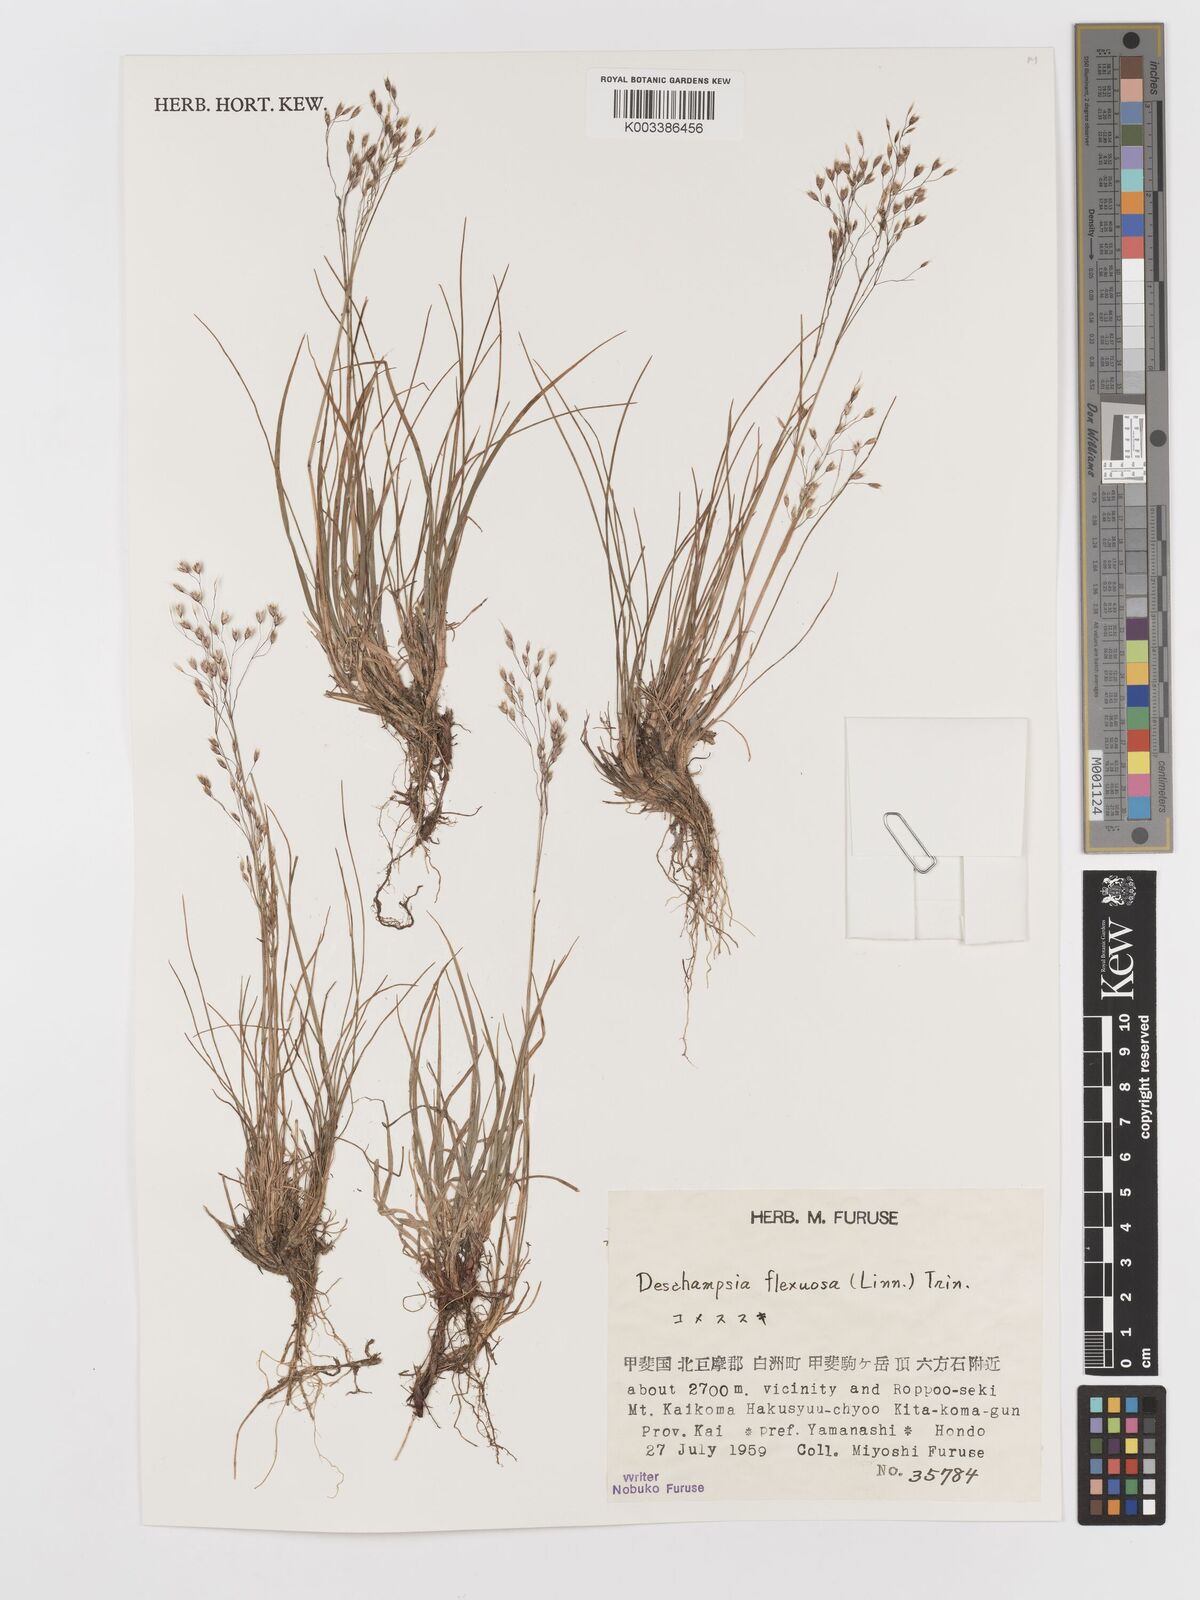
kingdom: Plantae
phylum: Tracheophyta
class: Liliopsida
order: Poales
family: Poaceae
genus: Avenella
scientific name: Avenella flexuosa
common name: Wavy hairgrass
